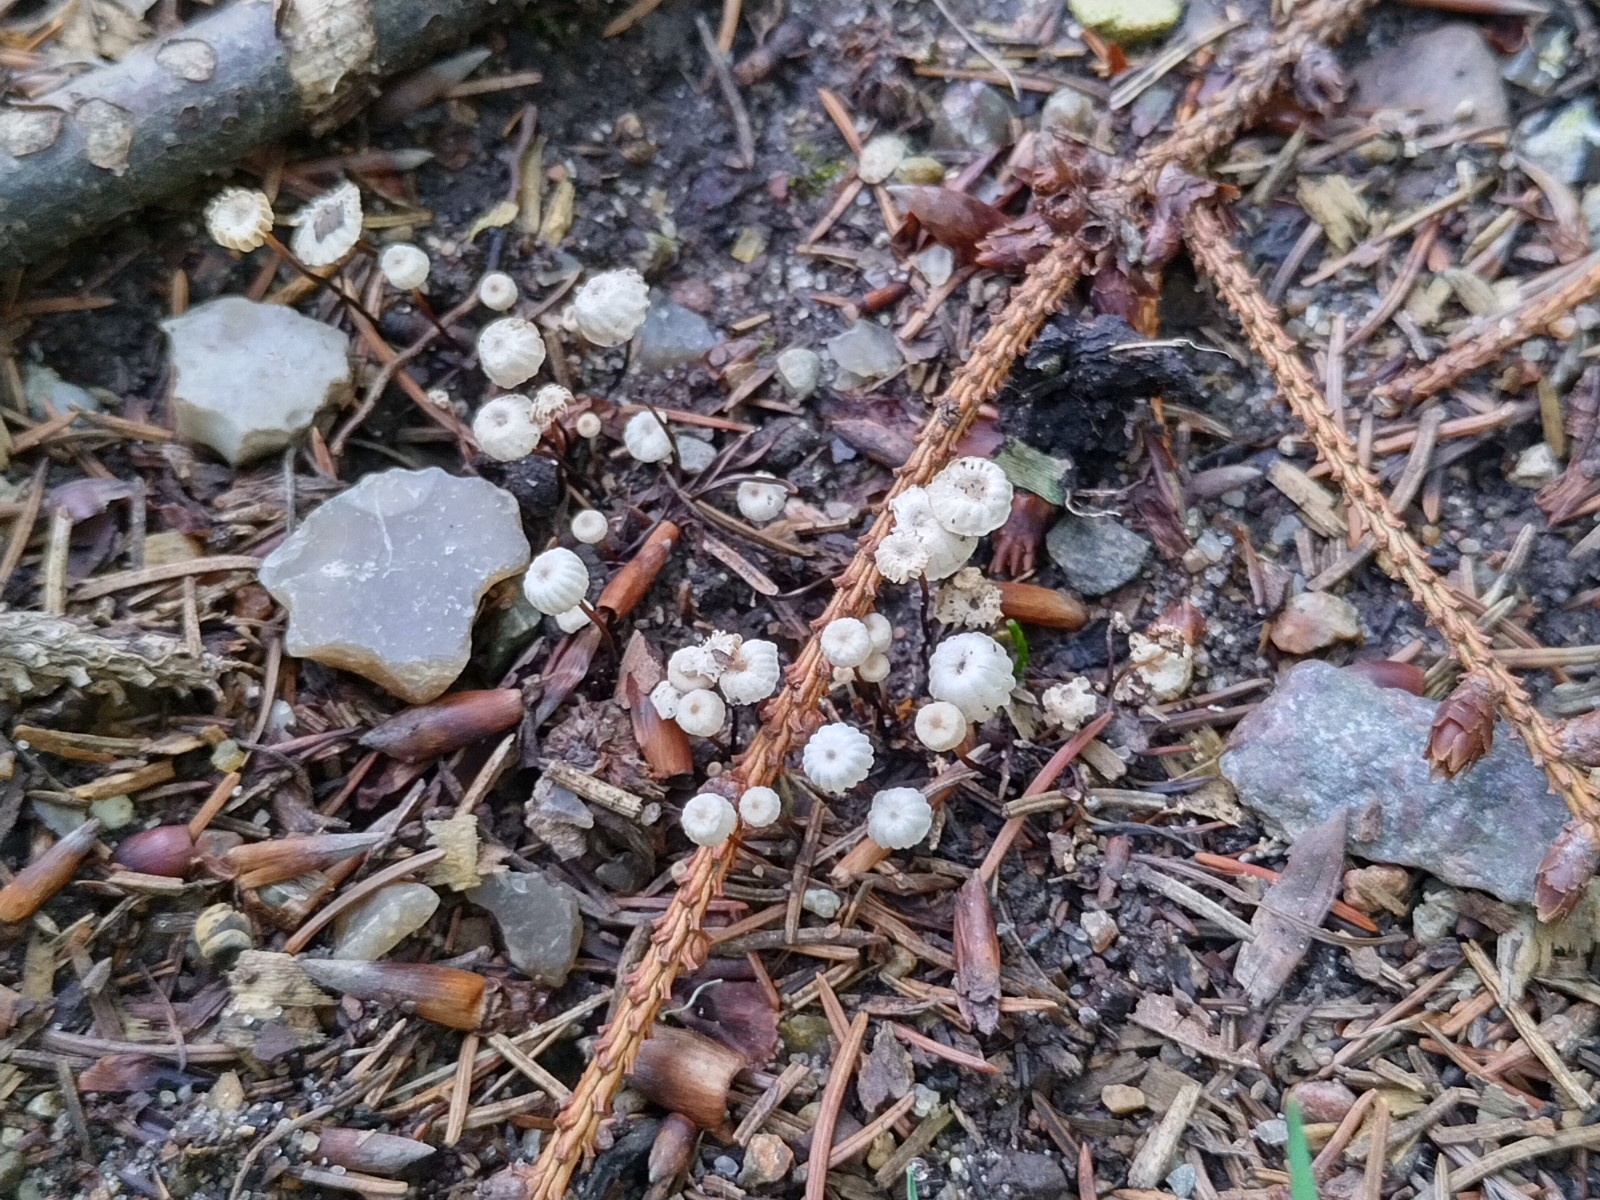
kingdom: Fungi
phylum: Basidiomycota
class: Agaricomycetes
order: Agaricales
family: Marasmiaceae
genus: Marasmius
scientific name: Marasmius rotula
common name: hjul-bruskhat
